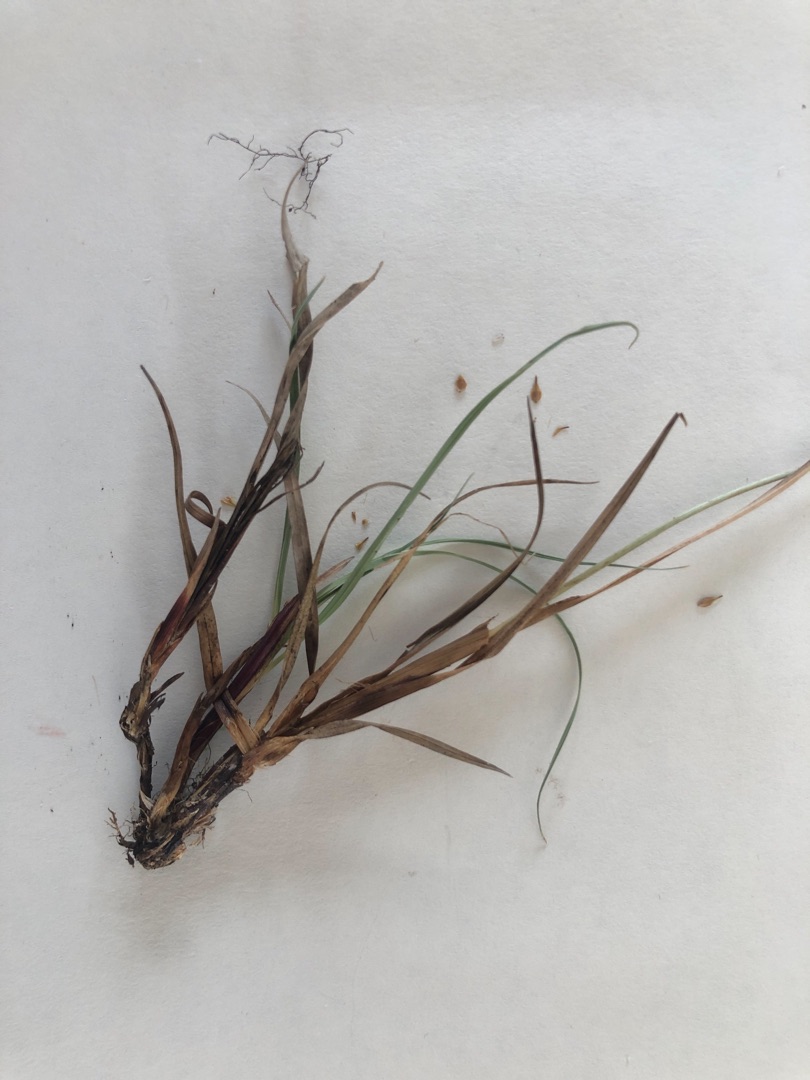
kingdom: Plantae
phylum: Tracheophyta
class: Liliopsida
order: Poales
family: Cyperaceae
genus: Carex
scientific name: Carex flacca
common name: Blågrøn star
